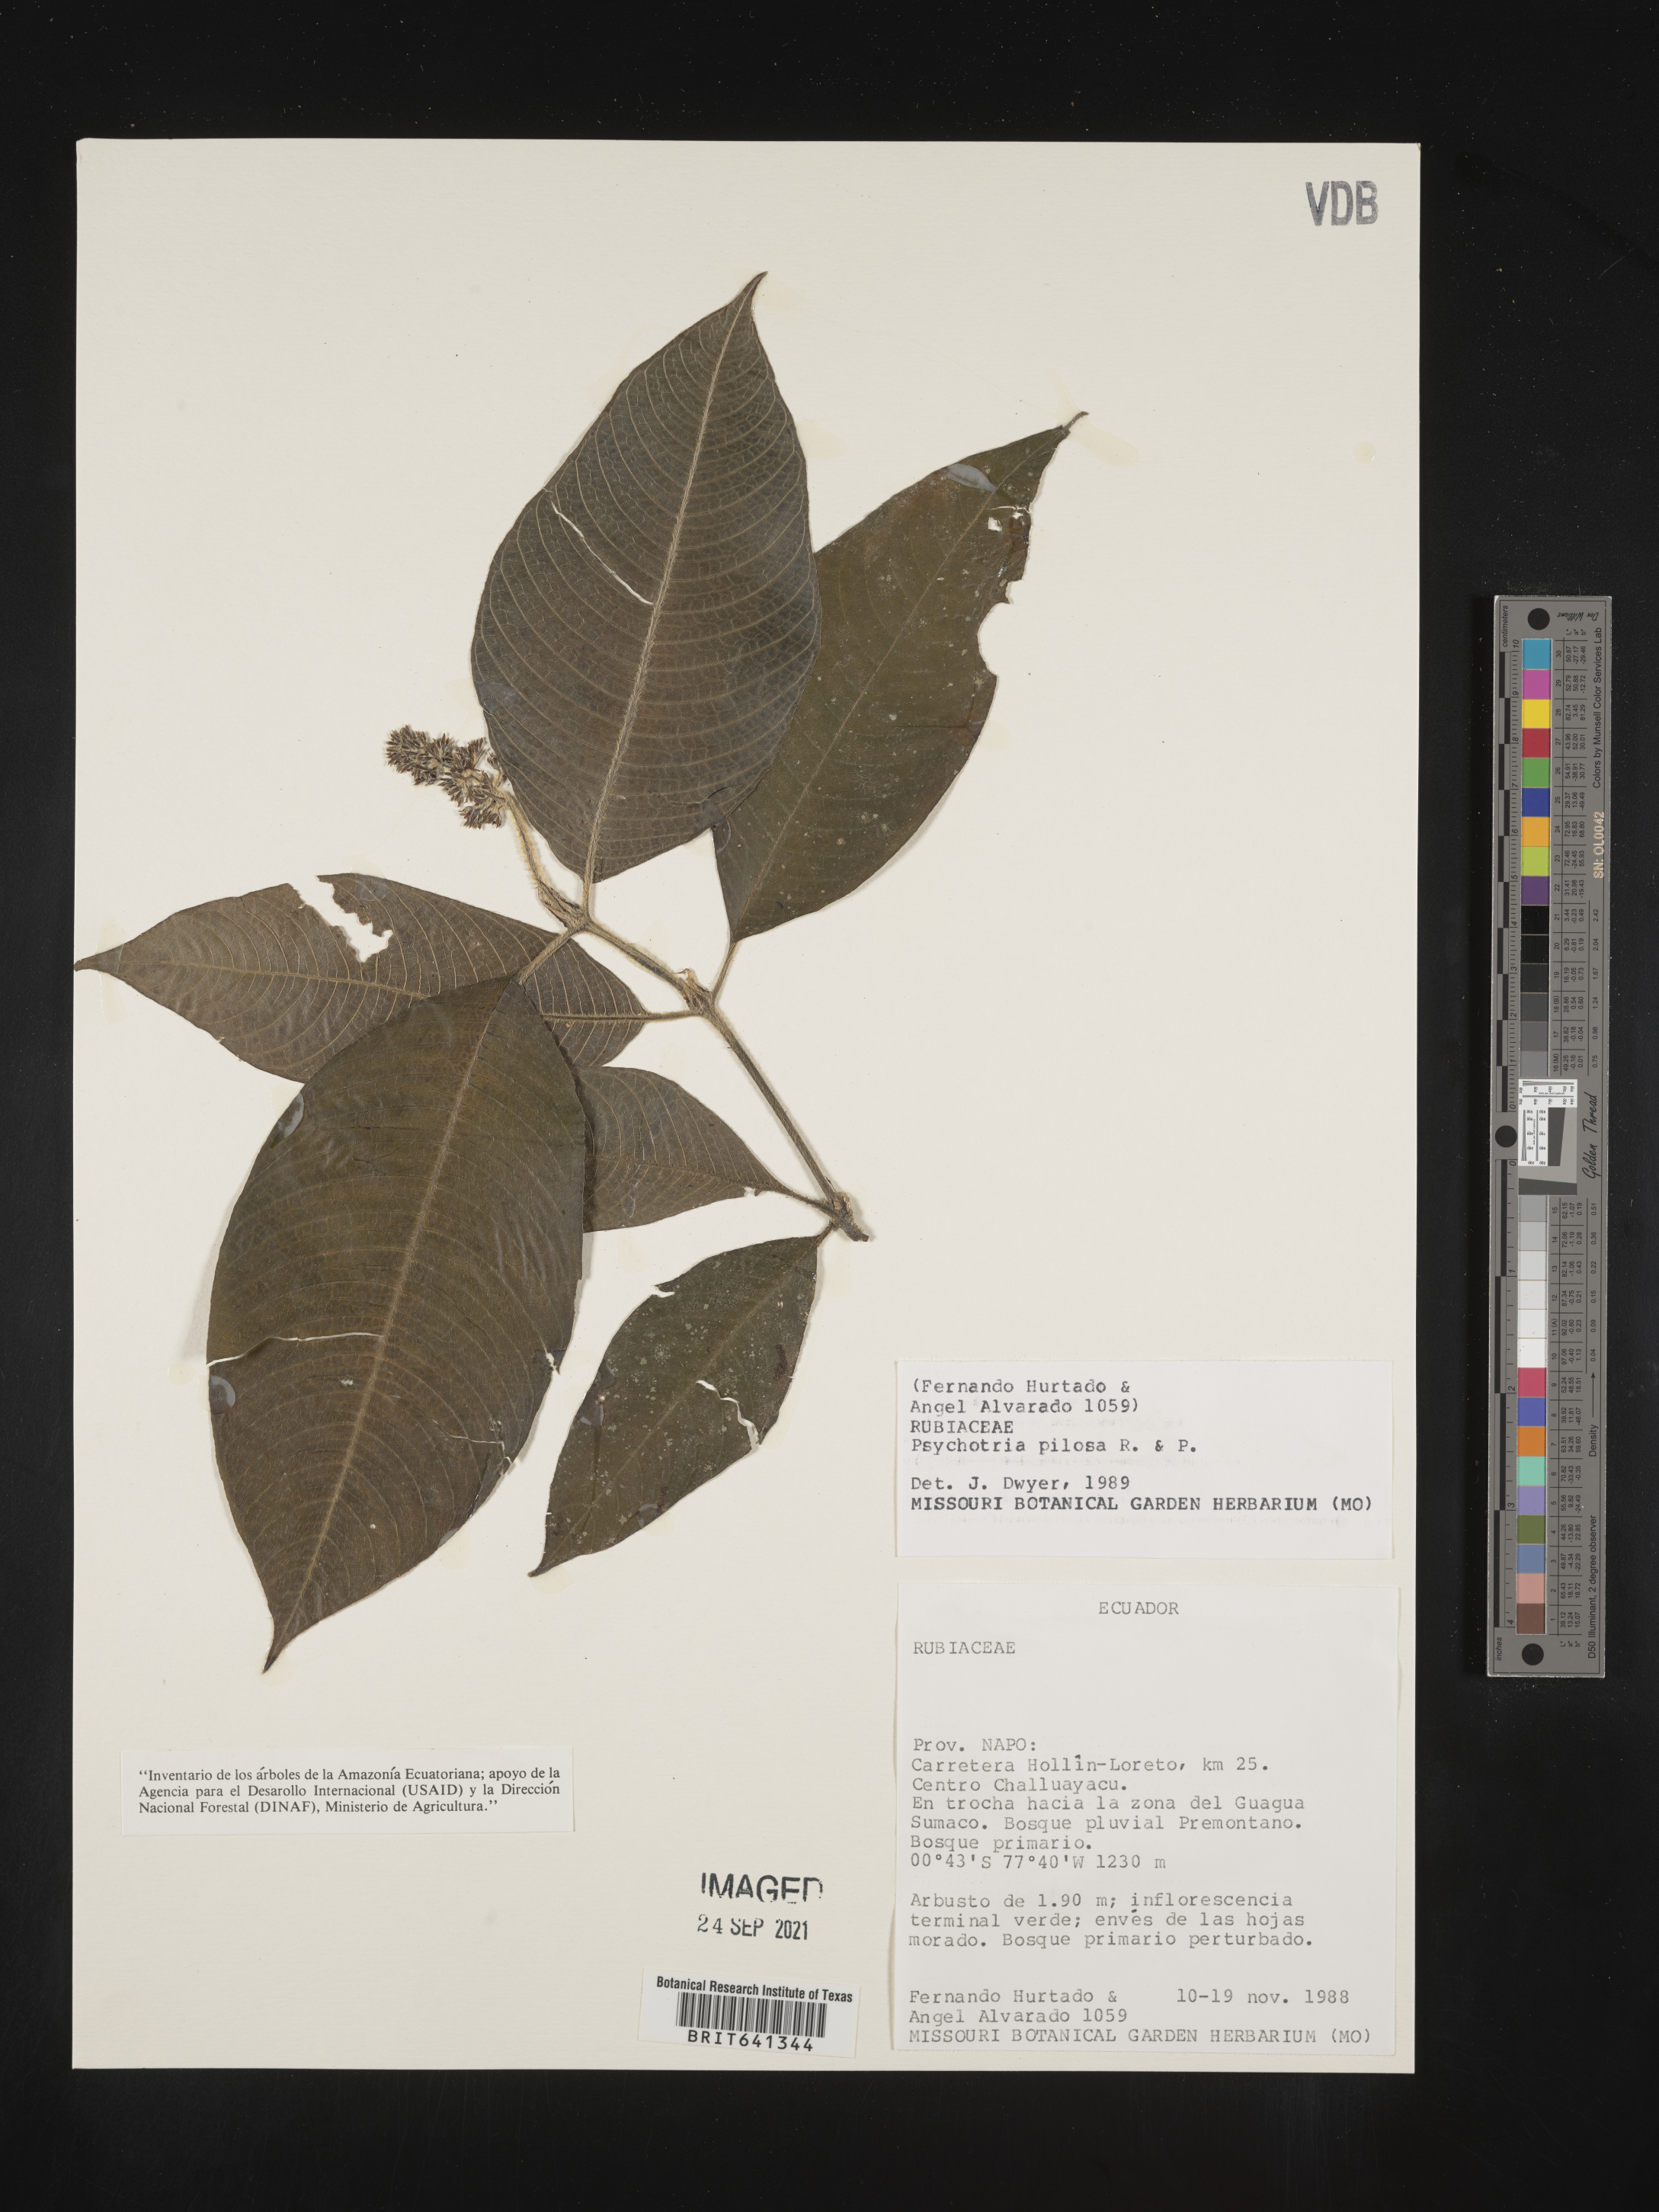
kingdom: Plantae
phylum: Tracheophyta
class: Magnoliopsida
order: Gentianales
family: Rubiaceae
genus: Psychotria
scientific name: Psychotria
